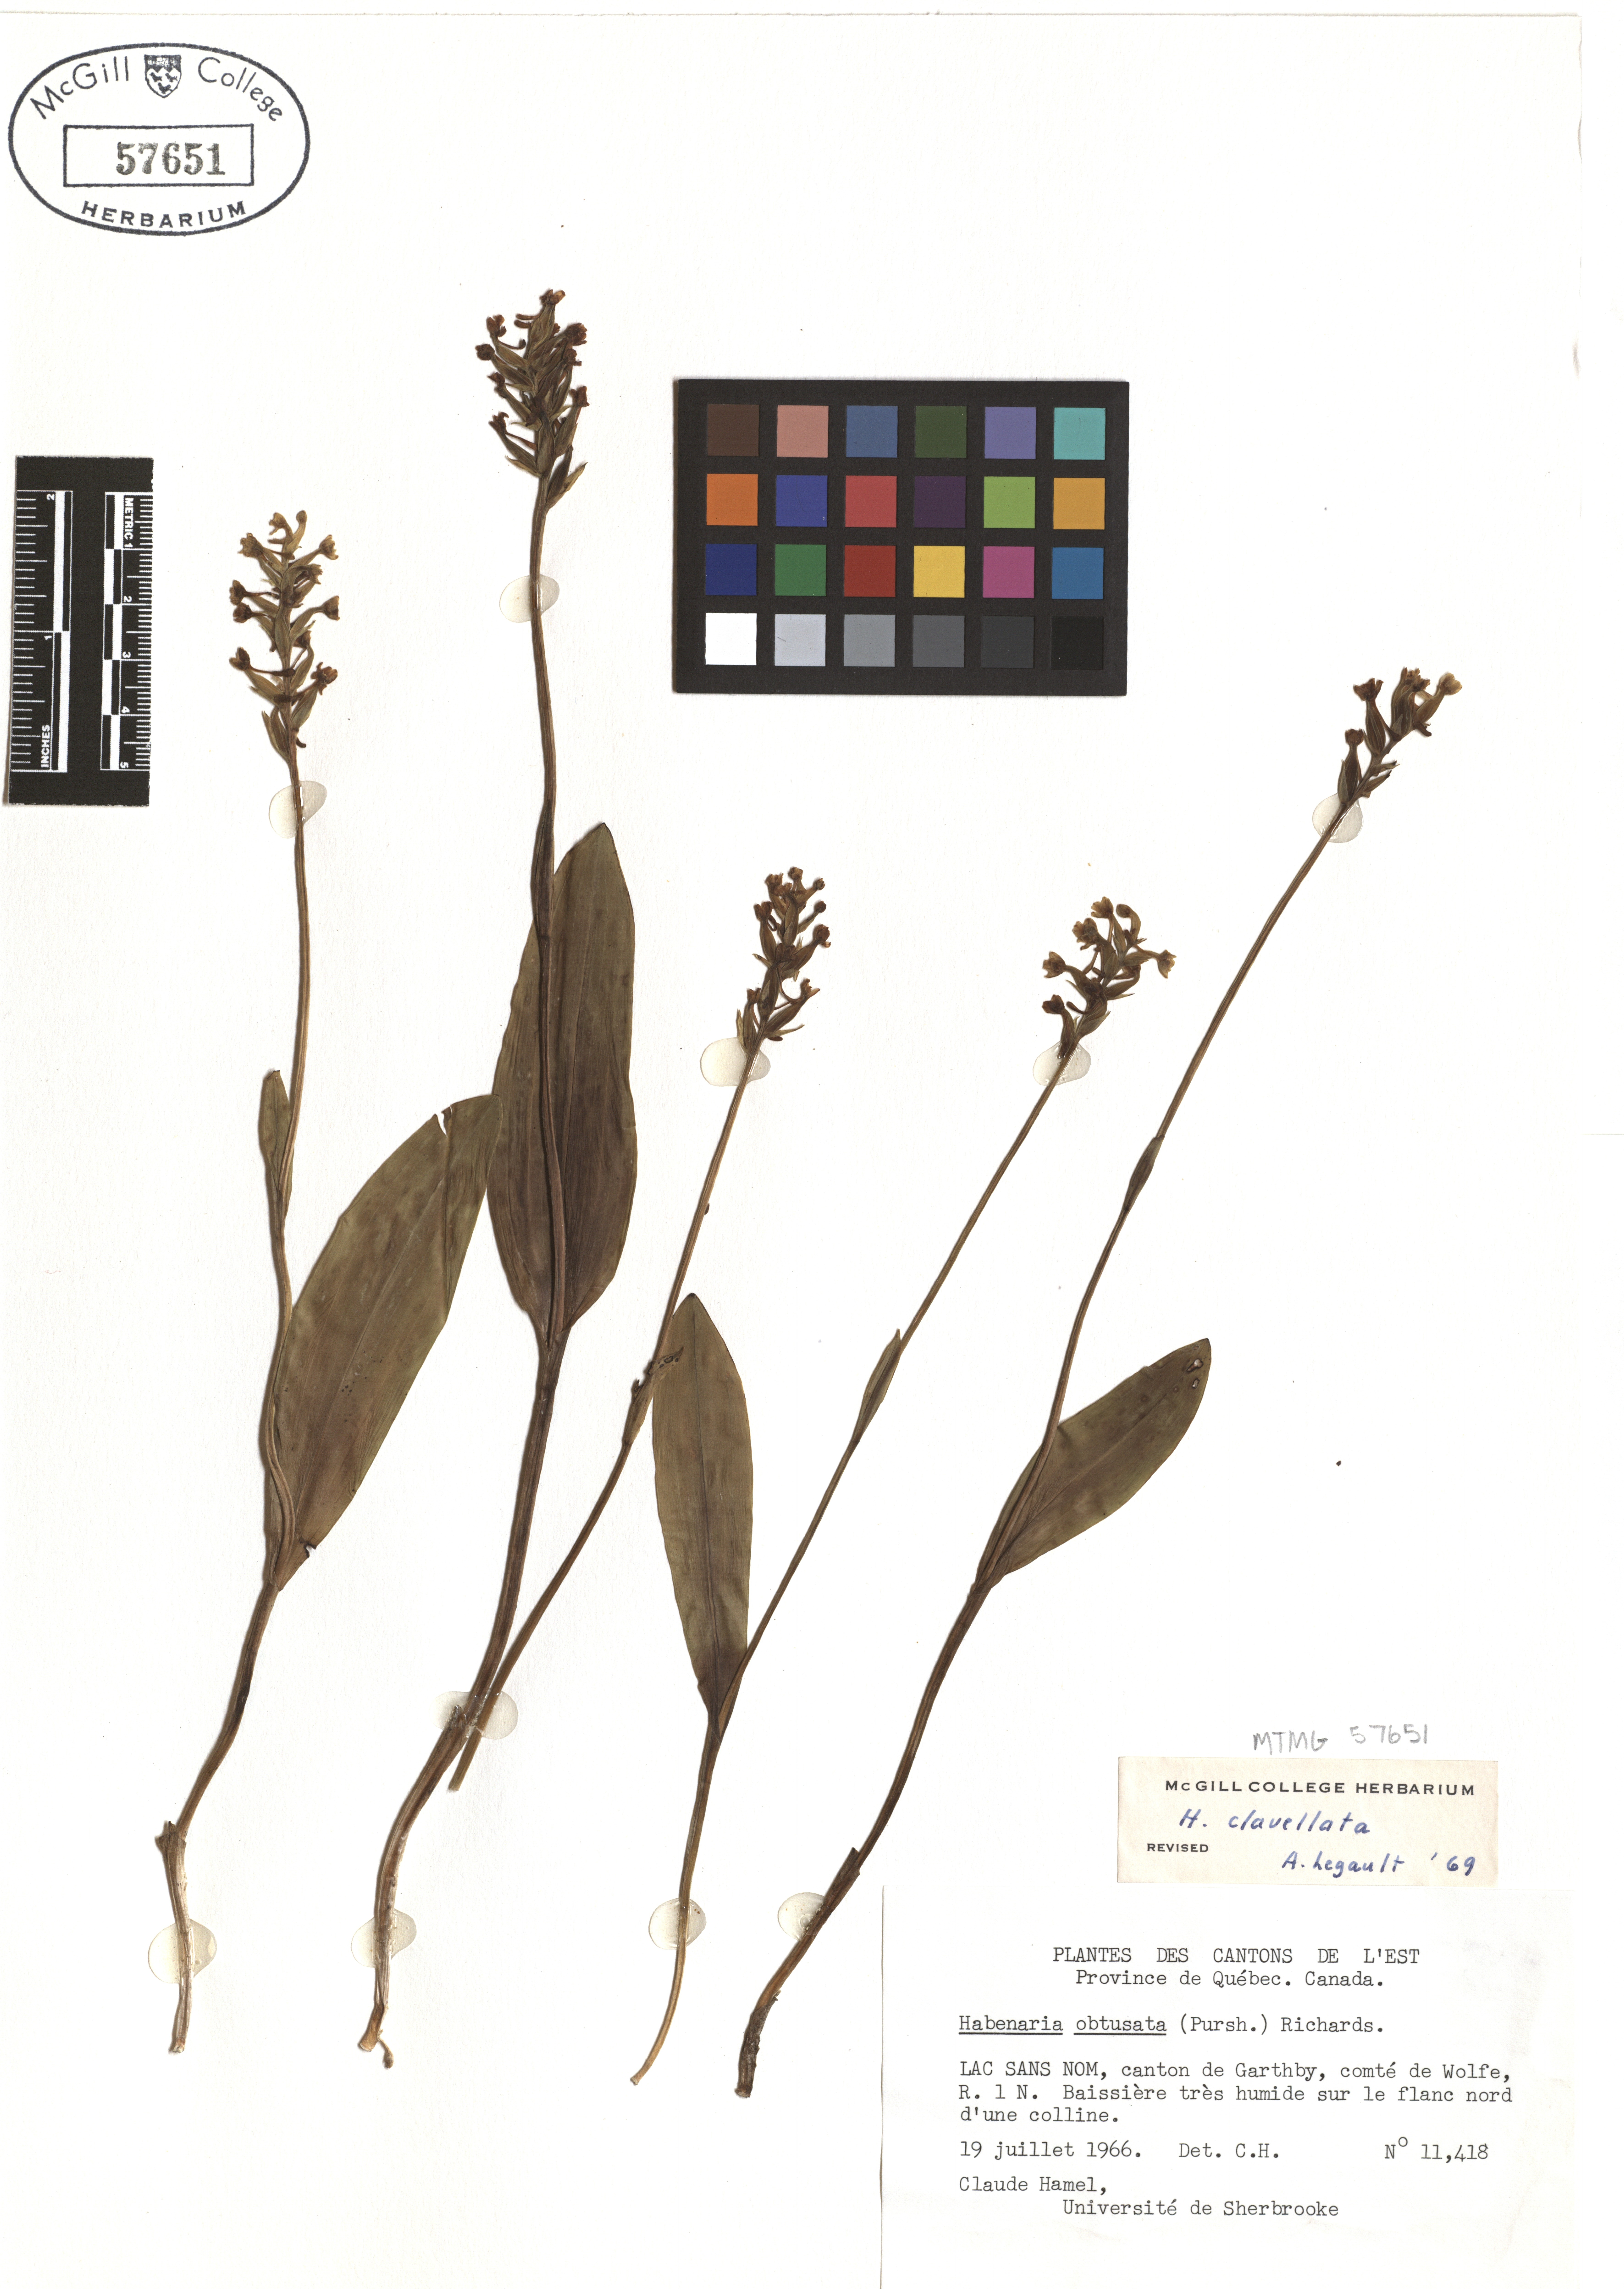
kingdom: Plantae
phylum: Tracheophyta
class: Liliopsida
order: Asparagales
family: Orchidaceae
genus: Platanthera
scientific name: Platanthera clavellata
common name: Club-spur orchid
